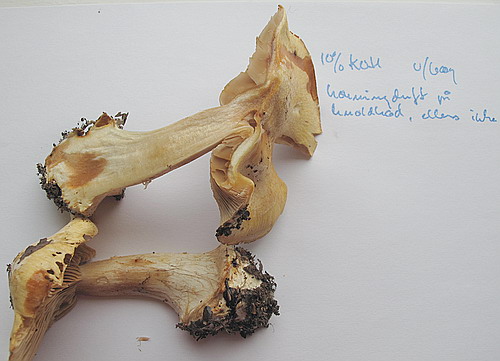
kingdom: Fungi
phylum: Basidiomycota
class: Agaricomycetes
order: Agaricales
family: Cortinariaceae
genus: Thaxterogaster
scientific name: Thaxterogaster talus
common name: knogle-slørhat
